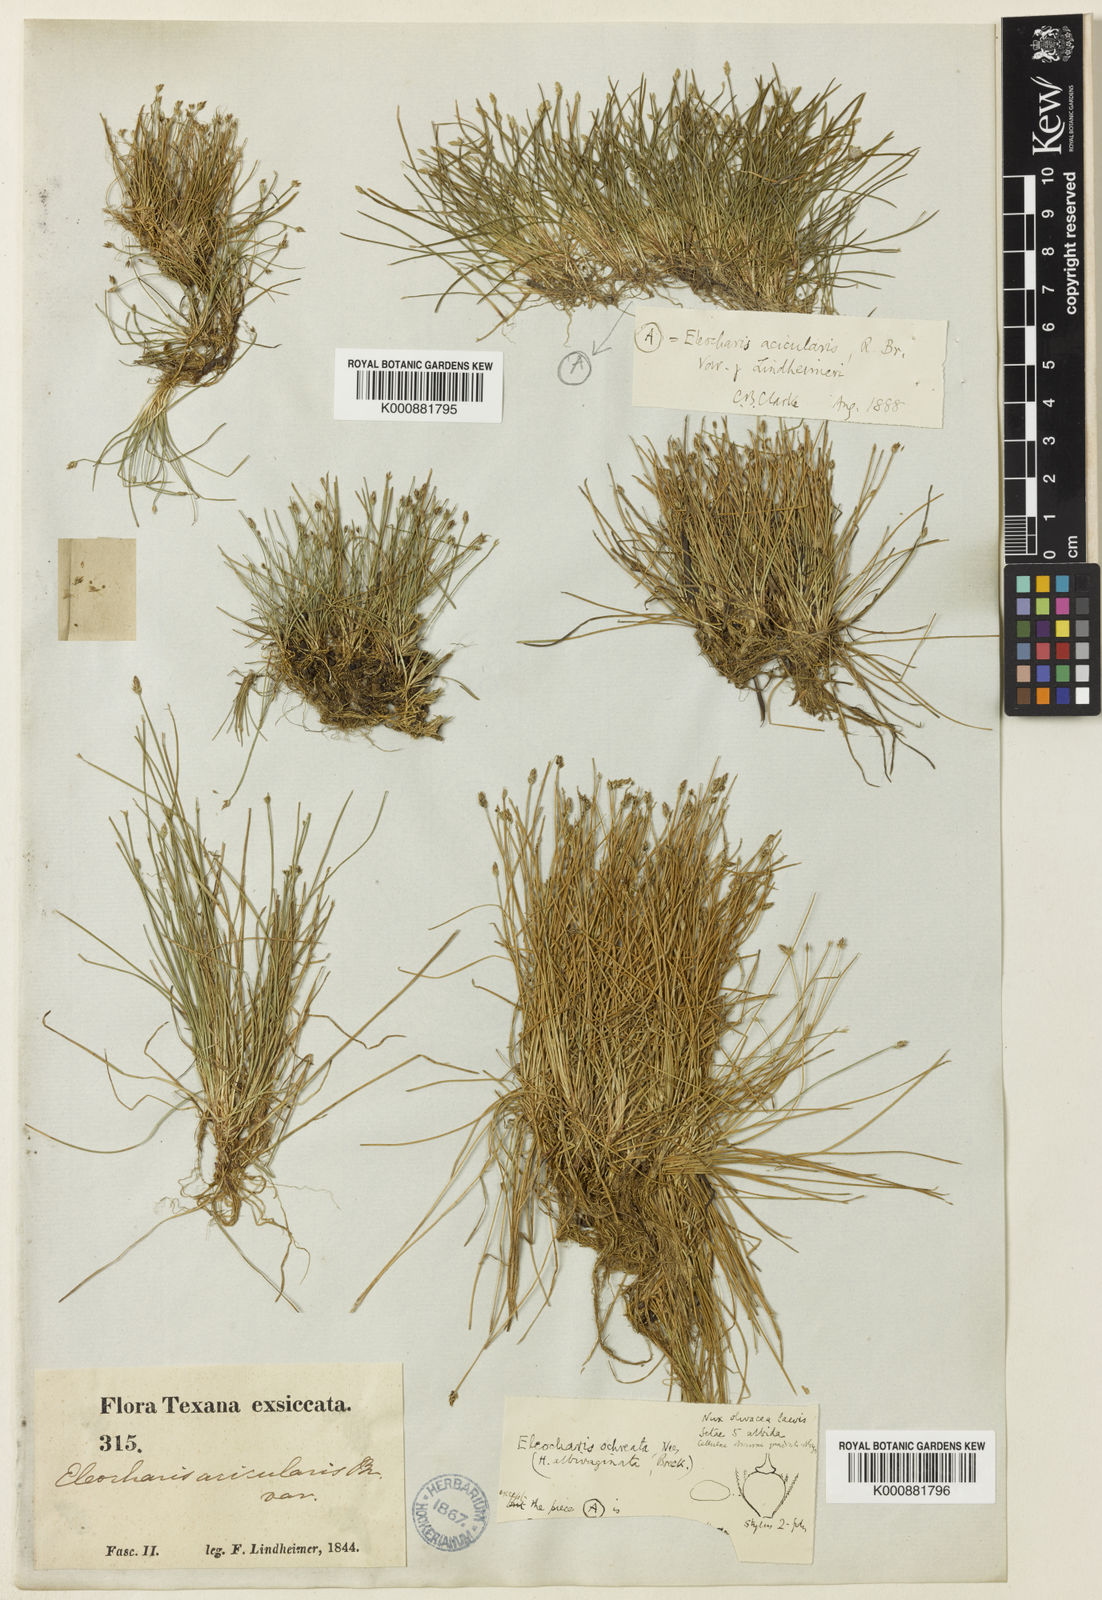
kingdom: Plantae
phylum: Tracheophyta
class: Liliopsida
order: Poales
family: Cyperaceae
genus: Eleocharis
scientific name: Eleocharis acicularis
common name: Needle spike-rush
